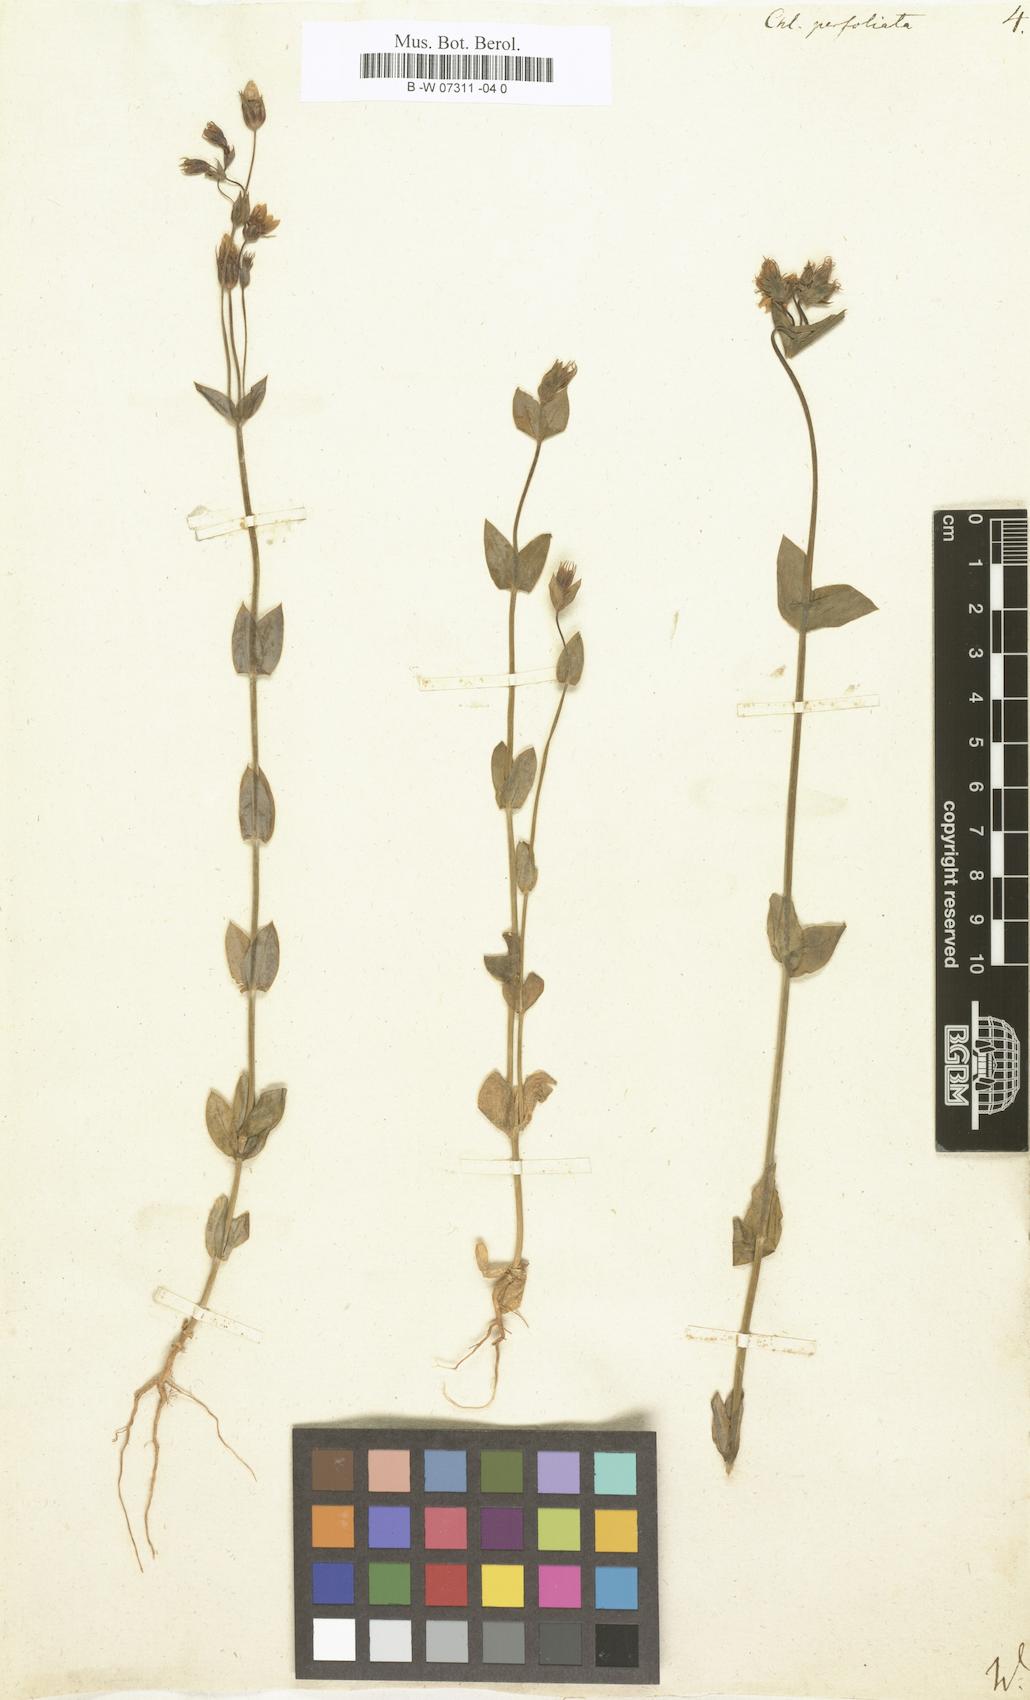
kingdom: Plantae
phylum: Tracheophyta
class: Magnoliopsida
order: Gentianales
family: Gentianaceae
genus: Blackstonia
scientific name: Blackstonia
